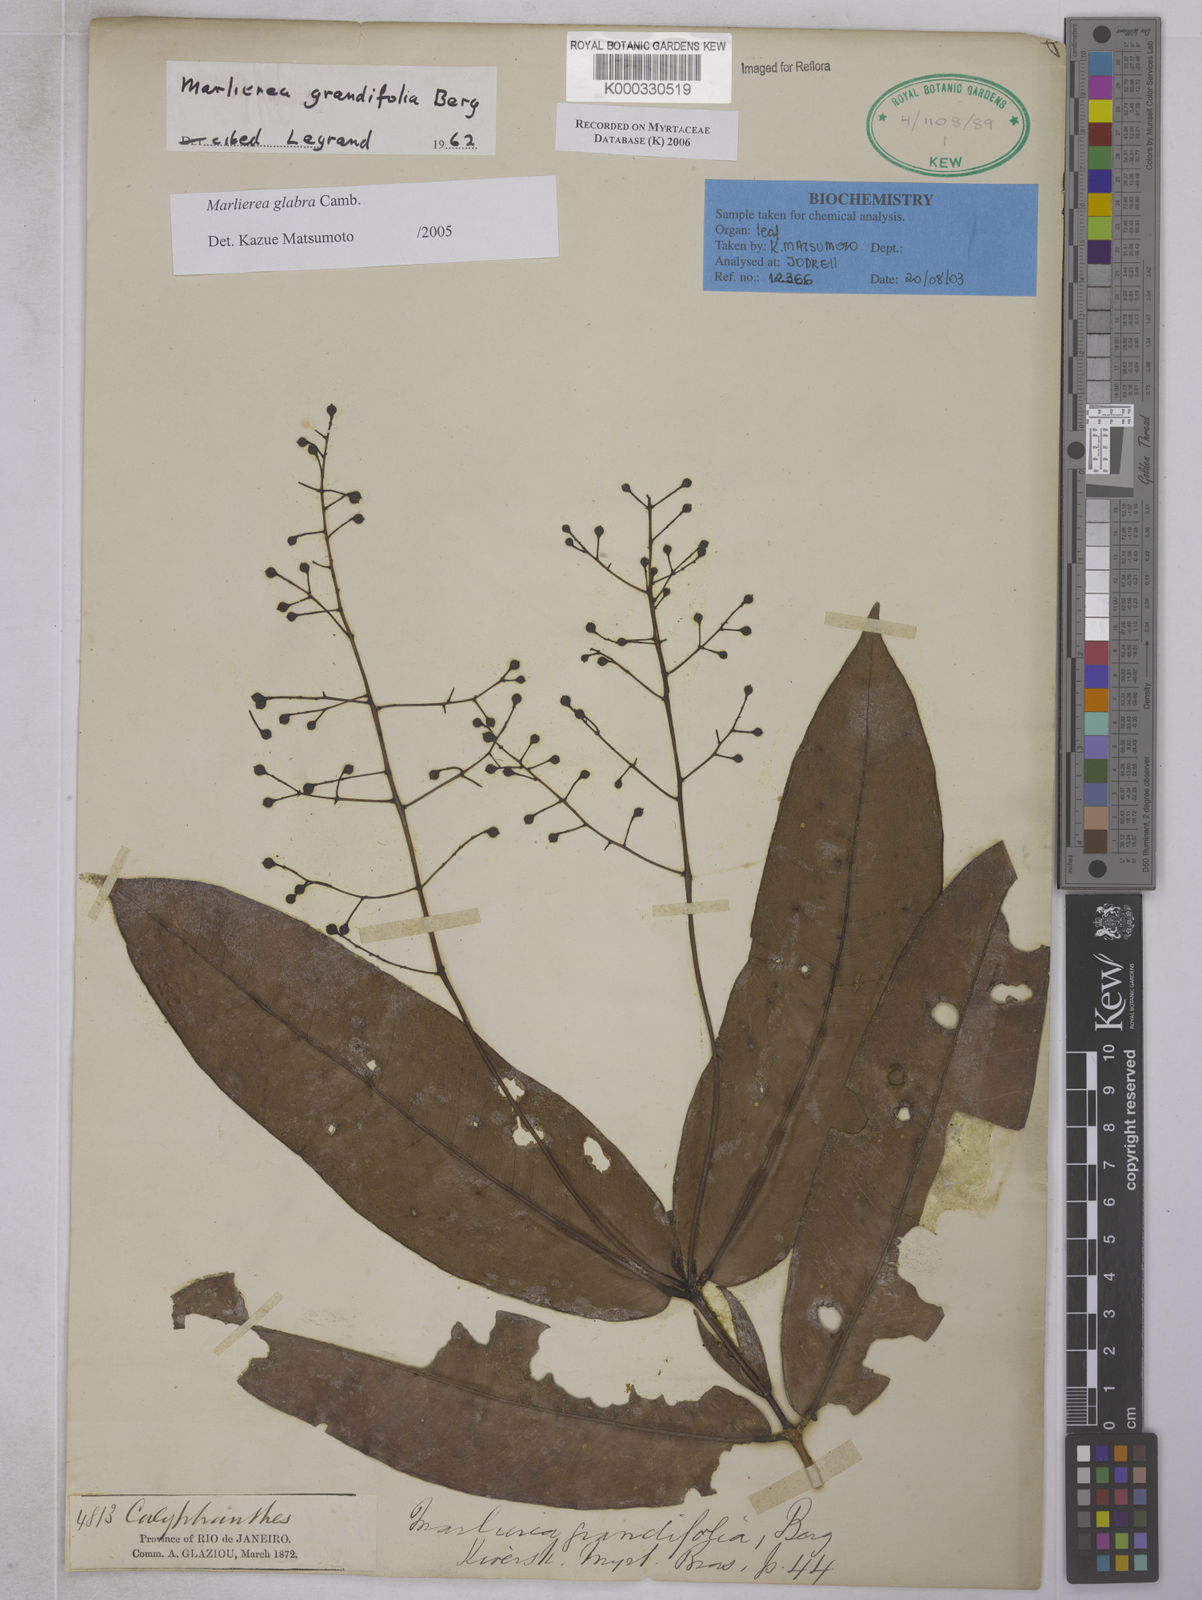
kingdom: Plantae
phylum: Tracheophyta
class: Magnoliopsida
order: Myrtales
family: Myrtaceae
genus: Myrcia
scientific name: Myrcia neoglabra
